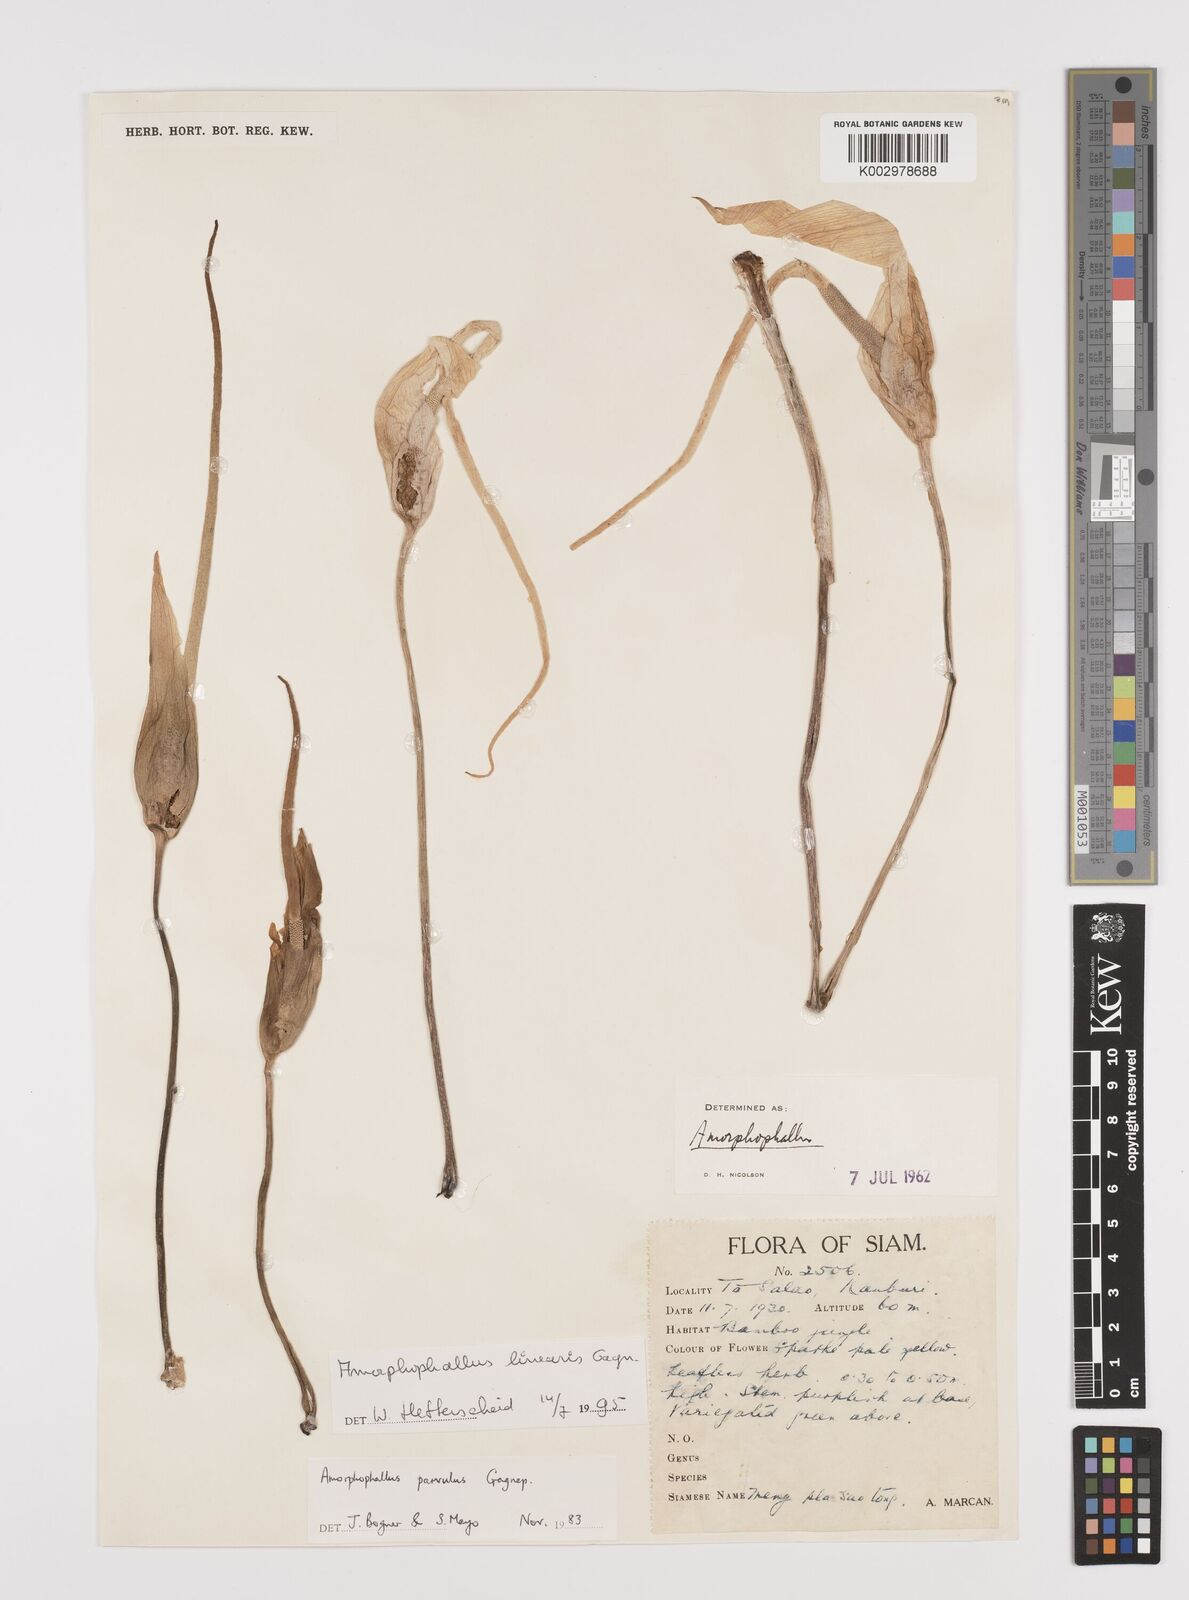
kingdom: Plantae
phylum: Tracheophyta
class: Liliopsida
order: Alismatales
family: Araceae
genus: Amorphophallus
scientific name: Amorphophallus linearis
